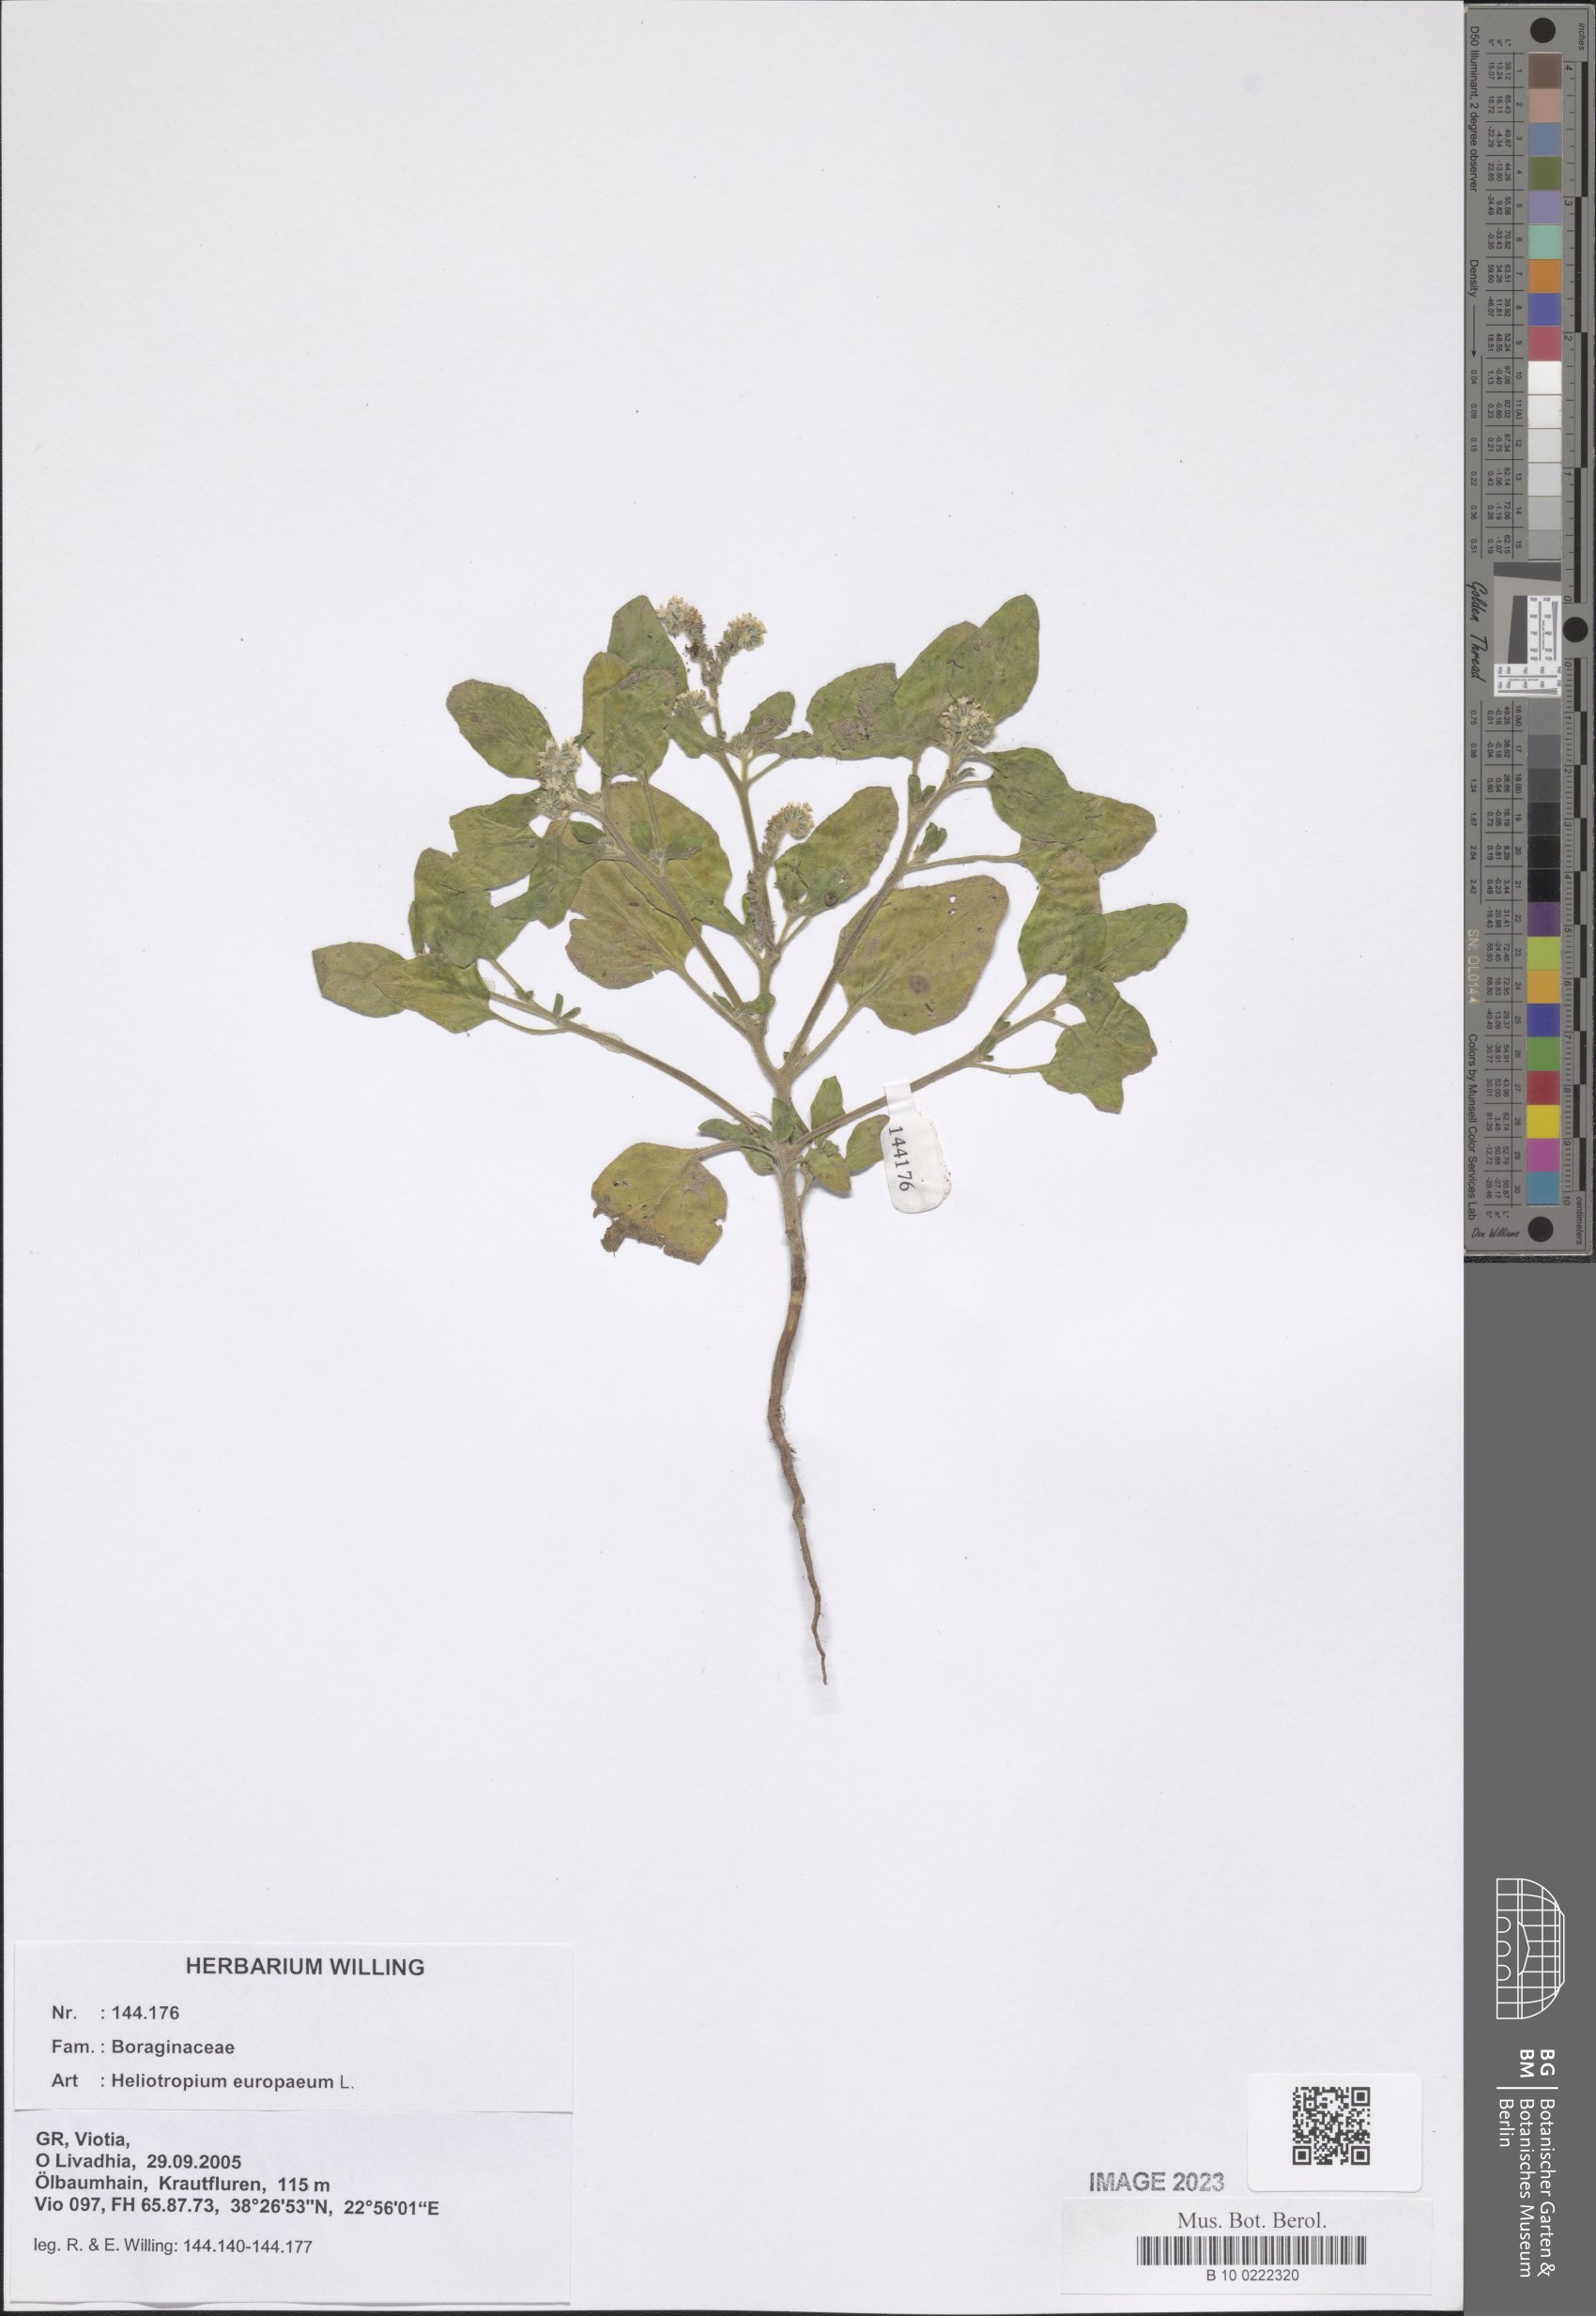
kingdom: Plantae
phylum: Tracheophyta
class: Magnoliopsida
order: Boraginales
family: Heliotropiaceae
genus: Heliotropium
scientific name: Heliotropium europaeum
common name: European heliotrope
